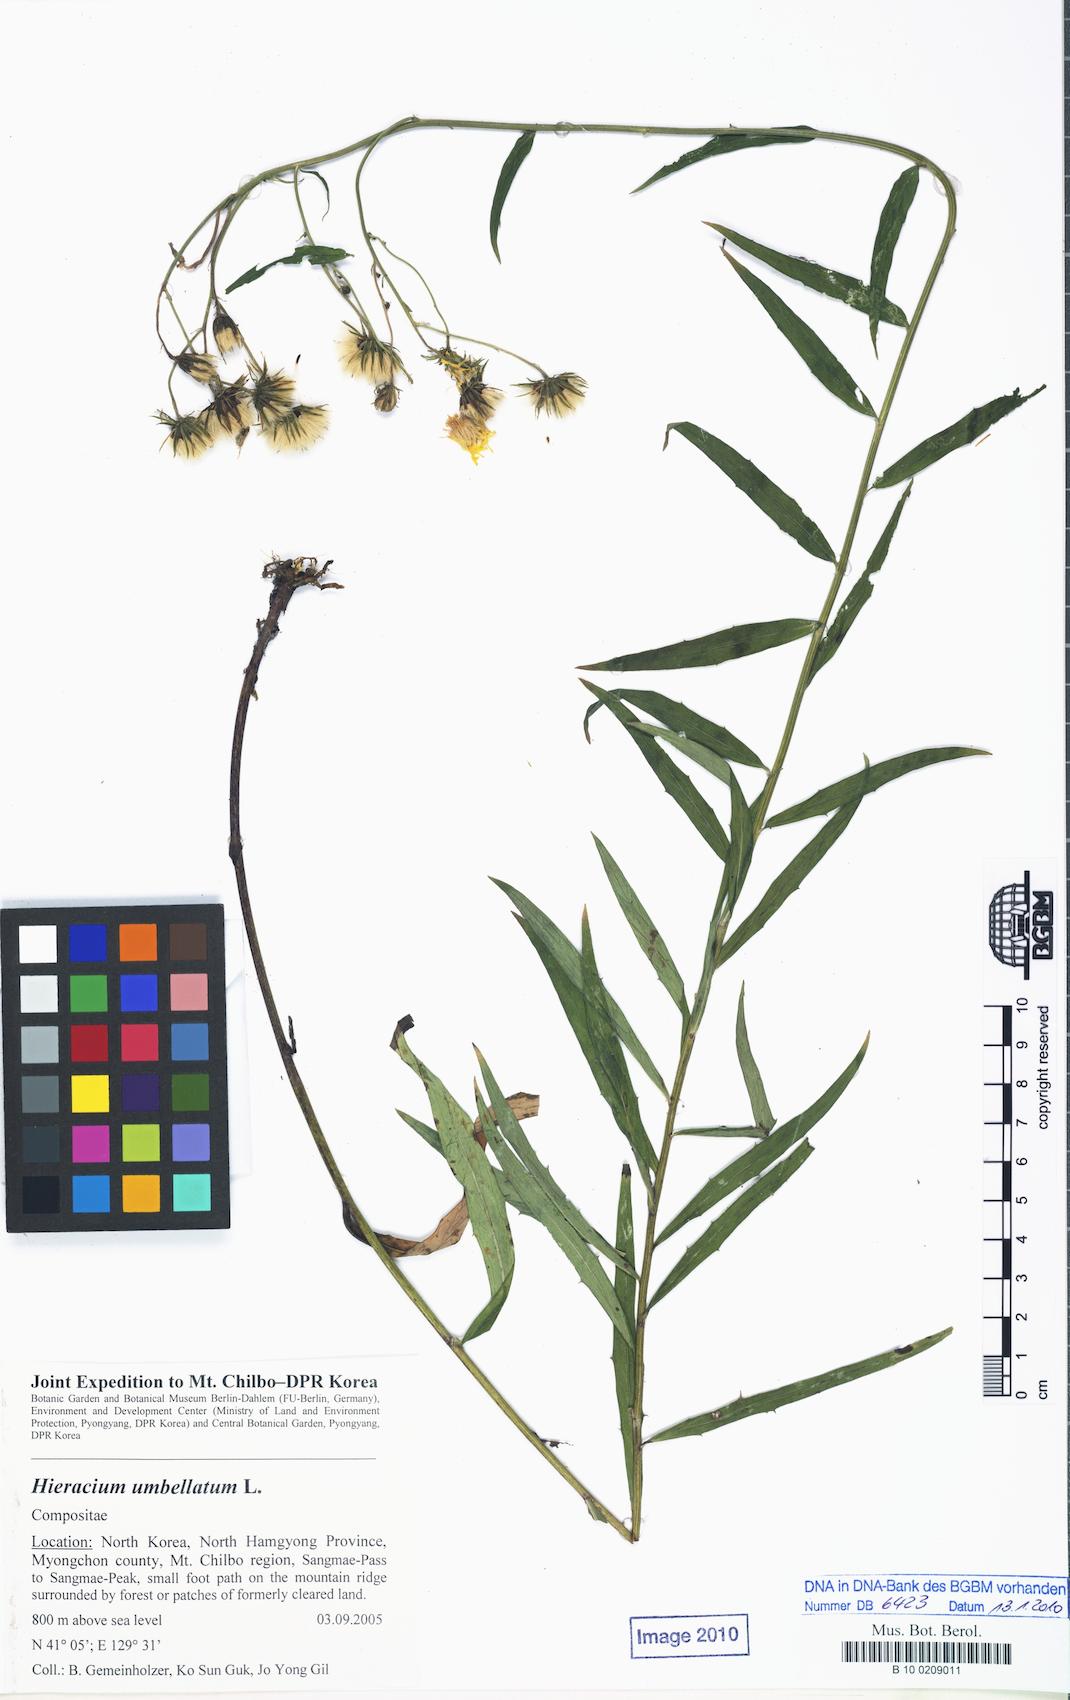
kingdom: Plantae
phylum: Tracheophyta
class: Magnoliopsida
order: Asterales
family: Asteraceae
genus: Hieracium
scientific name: Hieracium umbellatum
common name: Northern hawkweed
